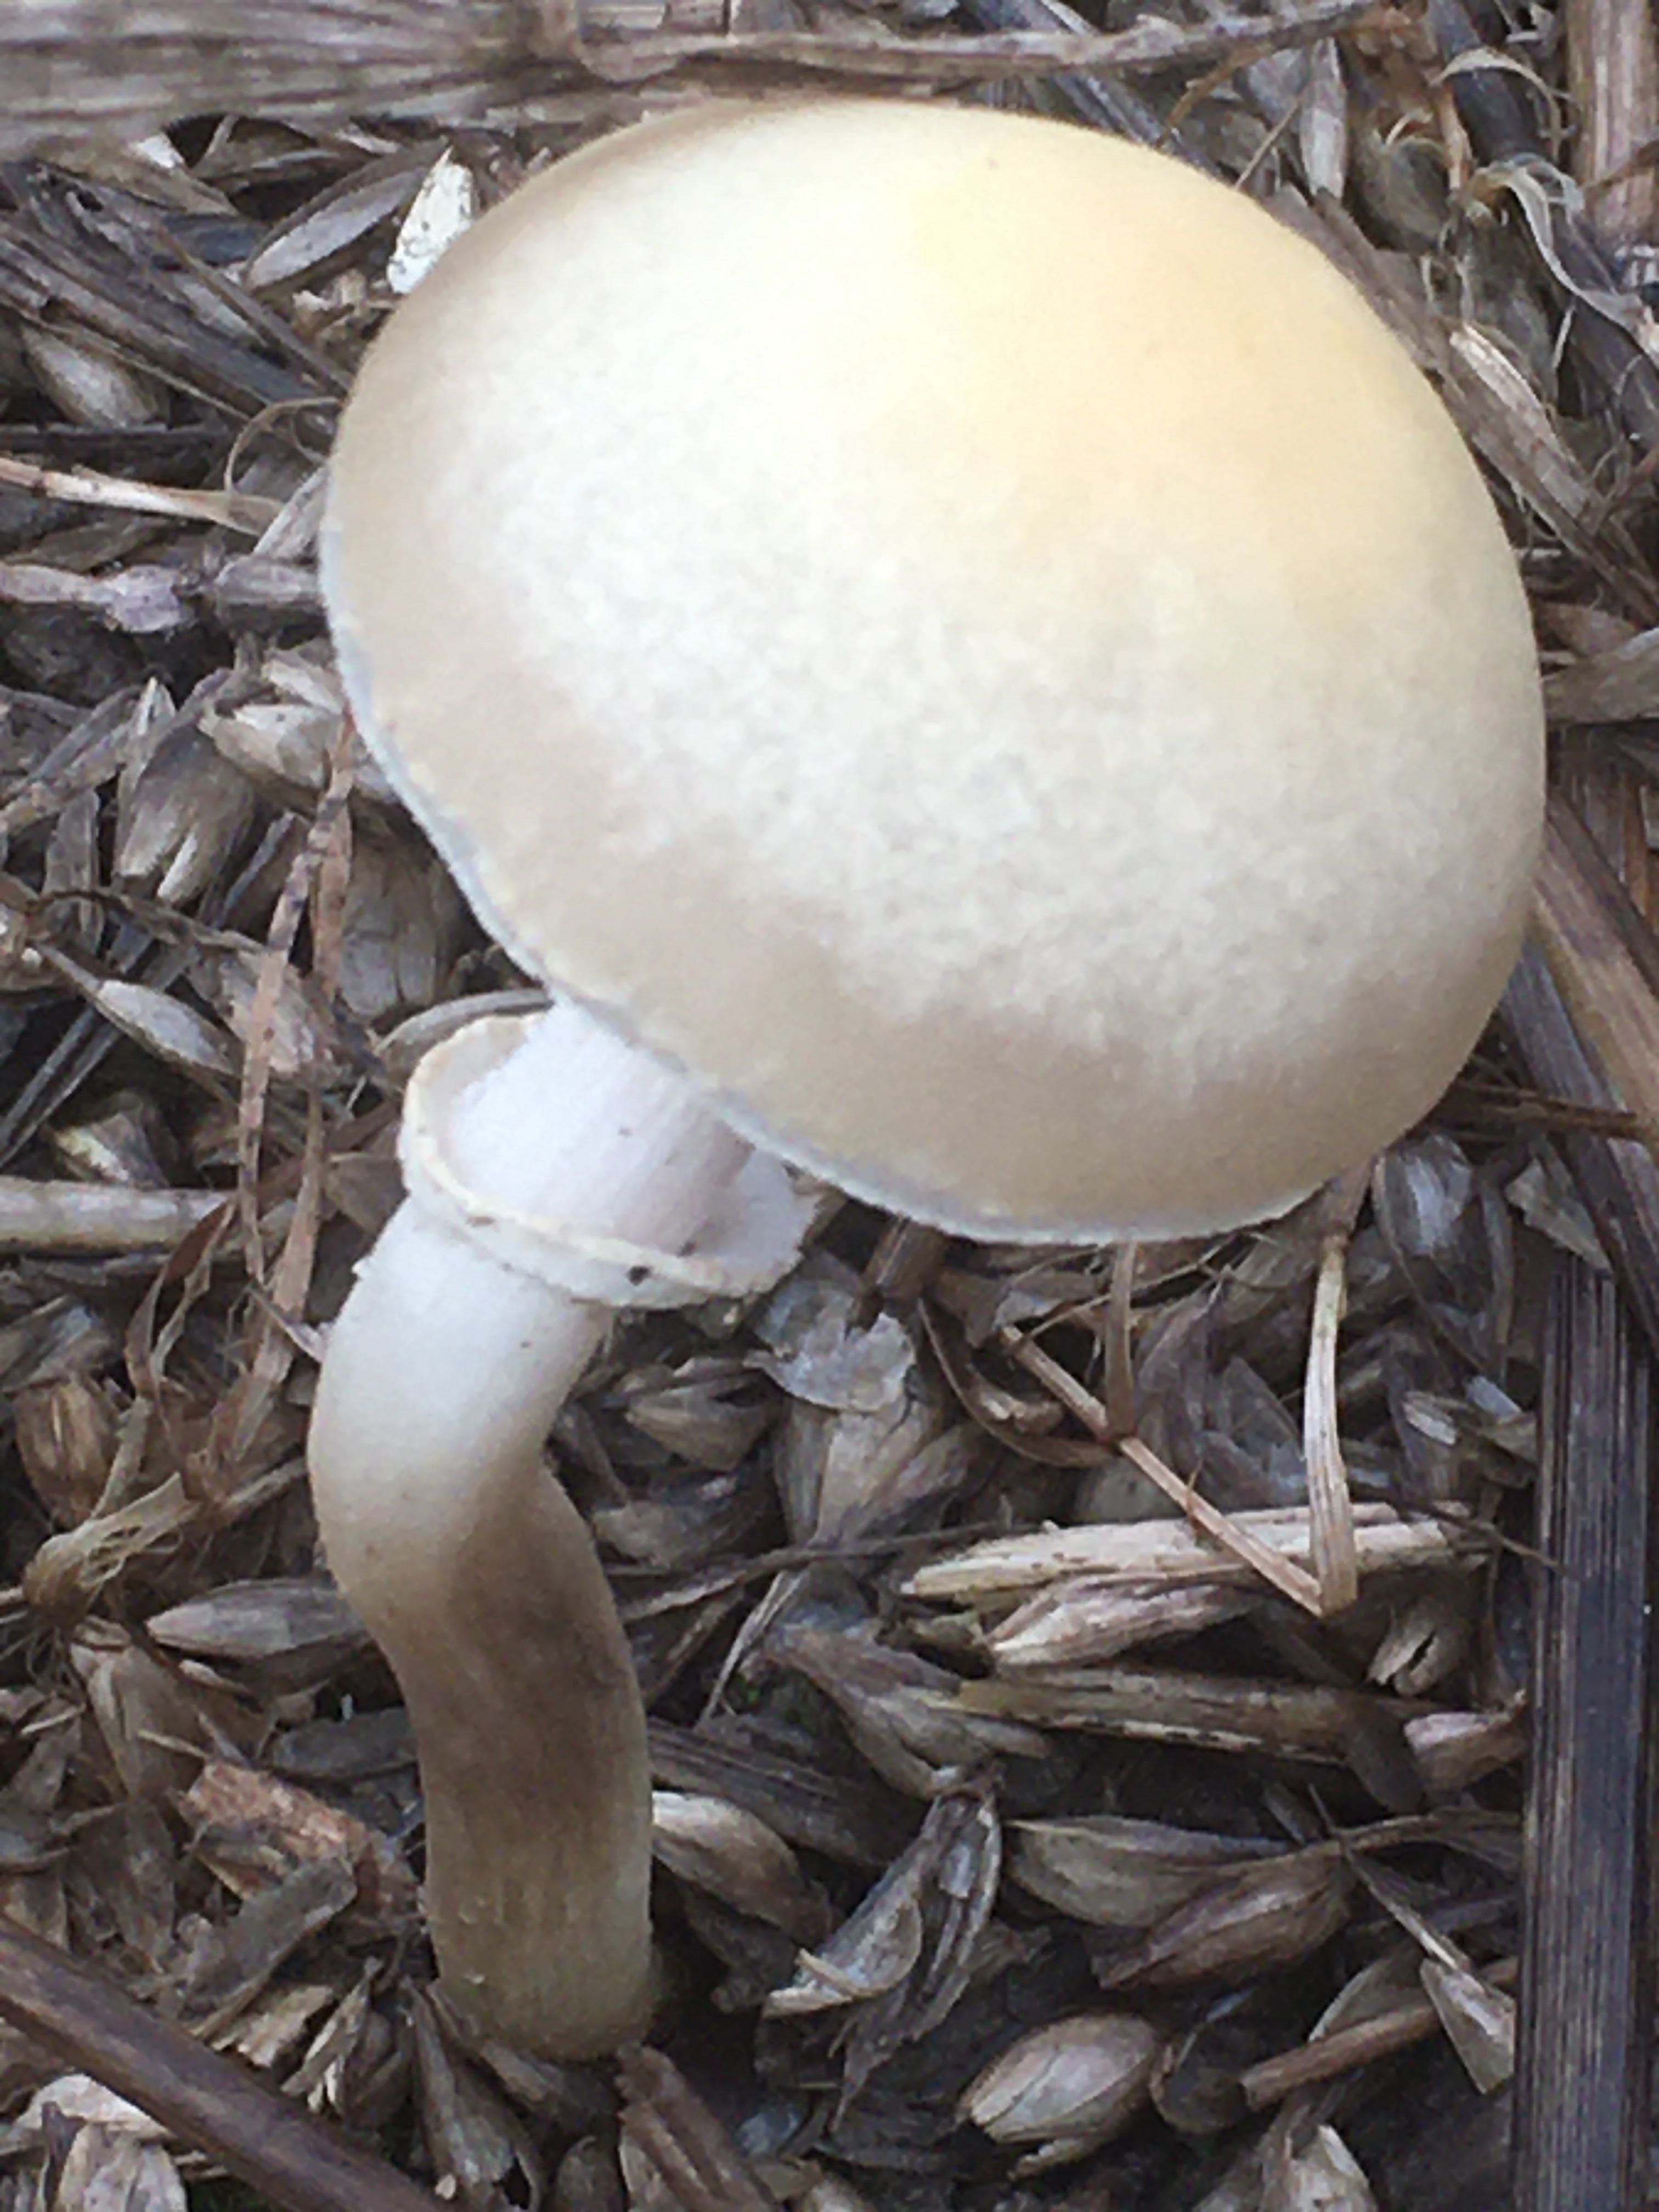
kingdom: Fungi
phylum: Basidiomycota
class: Agaricomycetes
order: Agaricales
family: Strophariaceae
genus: Agrocybe
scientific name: Agrocybe
